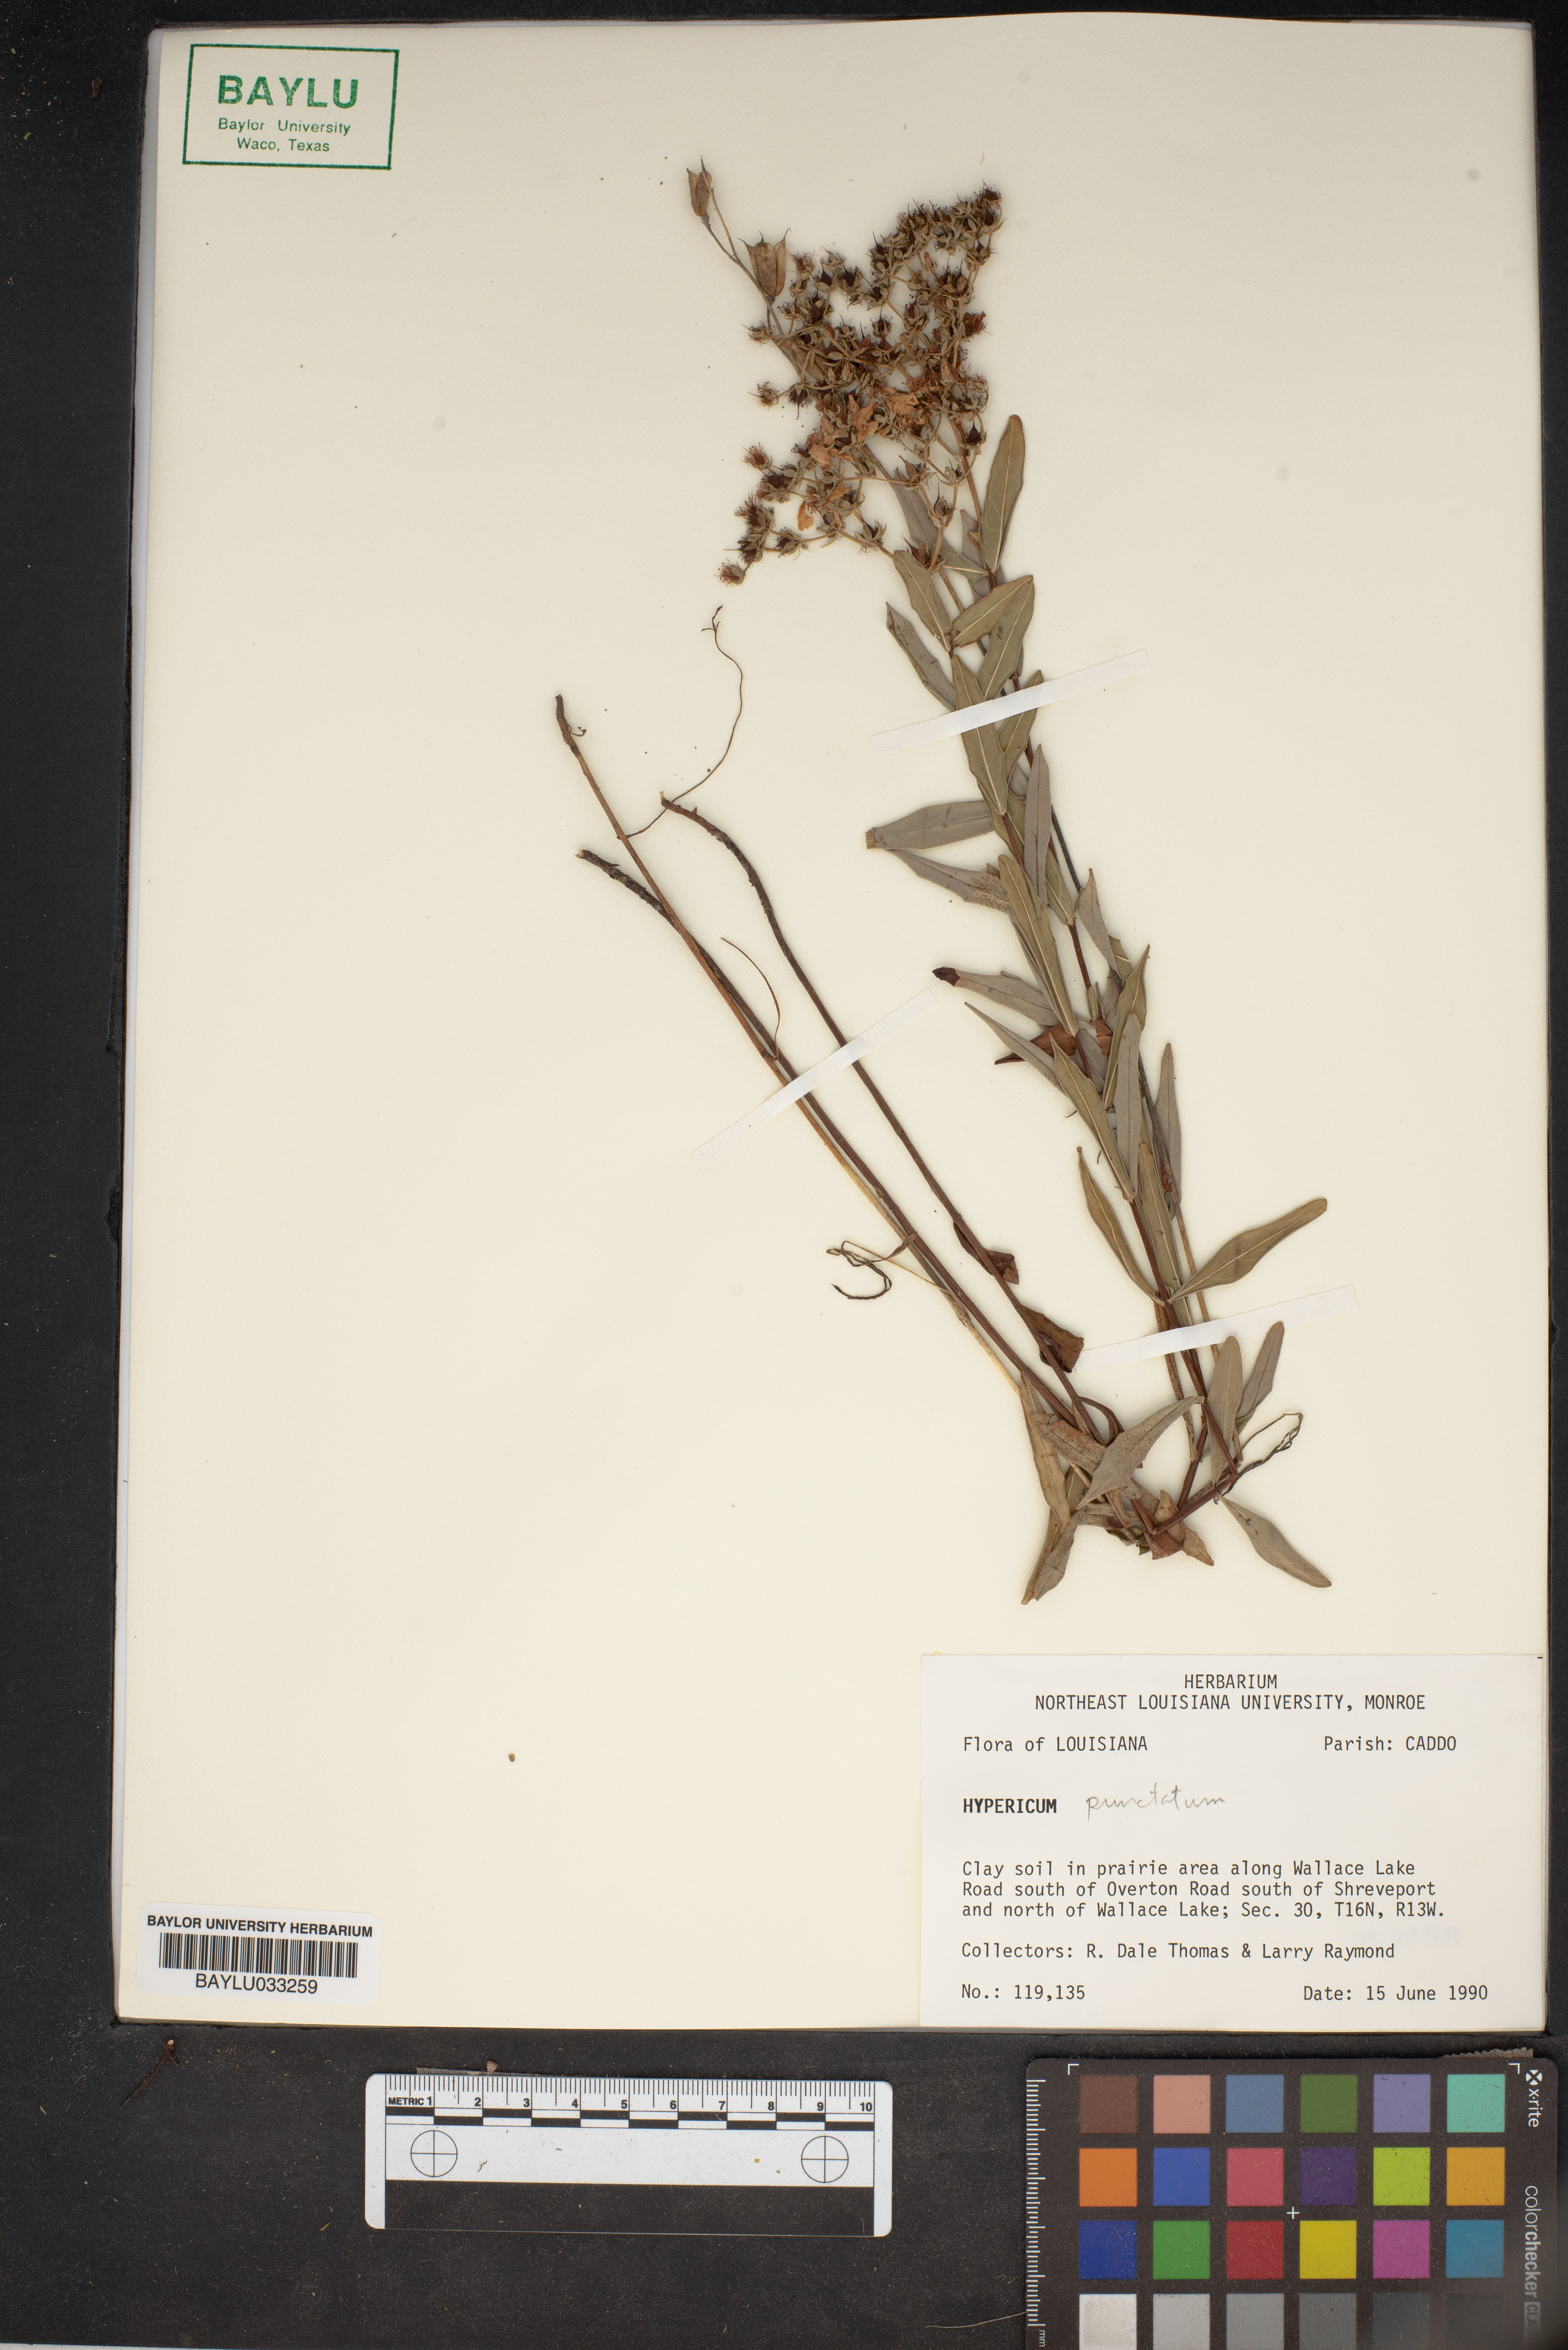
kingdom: Plantae
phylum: Tracheophyta
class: Magnoliopsida
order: Malpighiales
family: Hypericaceae
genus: Hypericum
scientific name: Hypericum punctatum
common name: Spotted st. john's-wort
